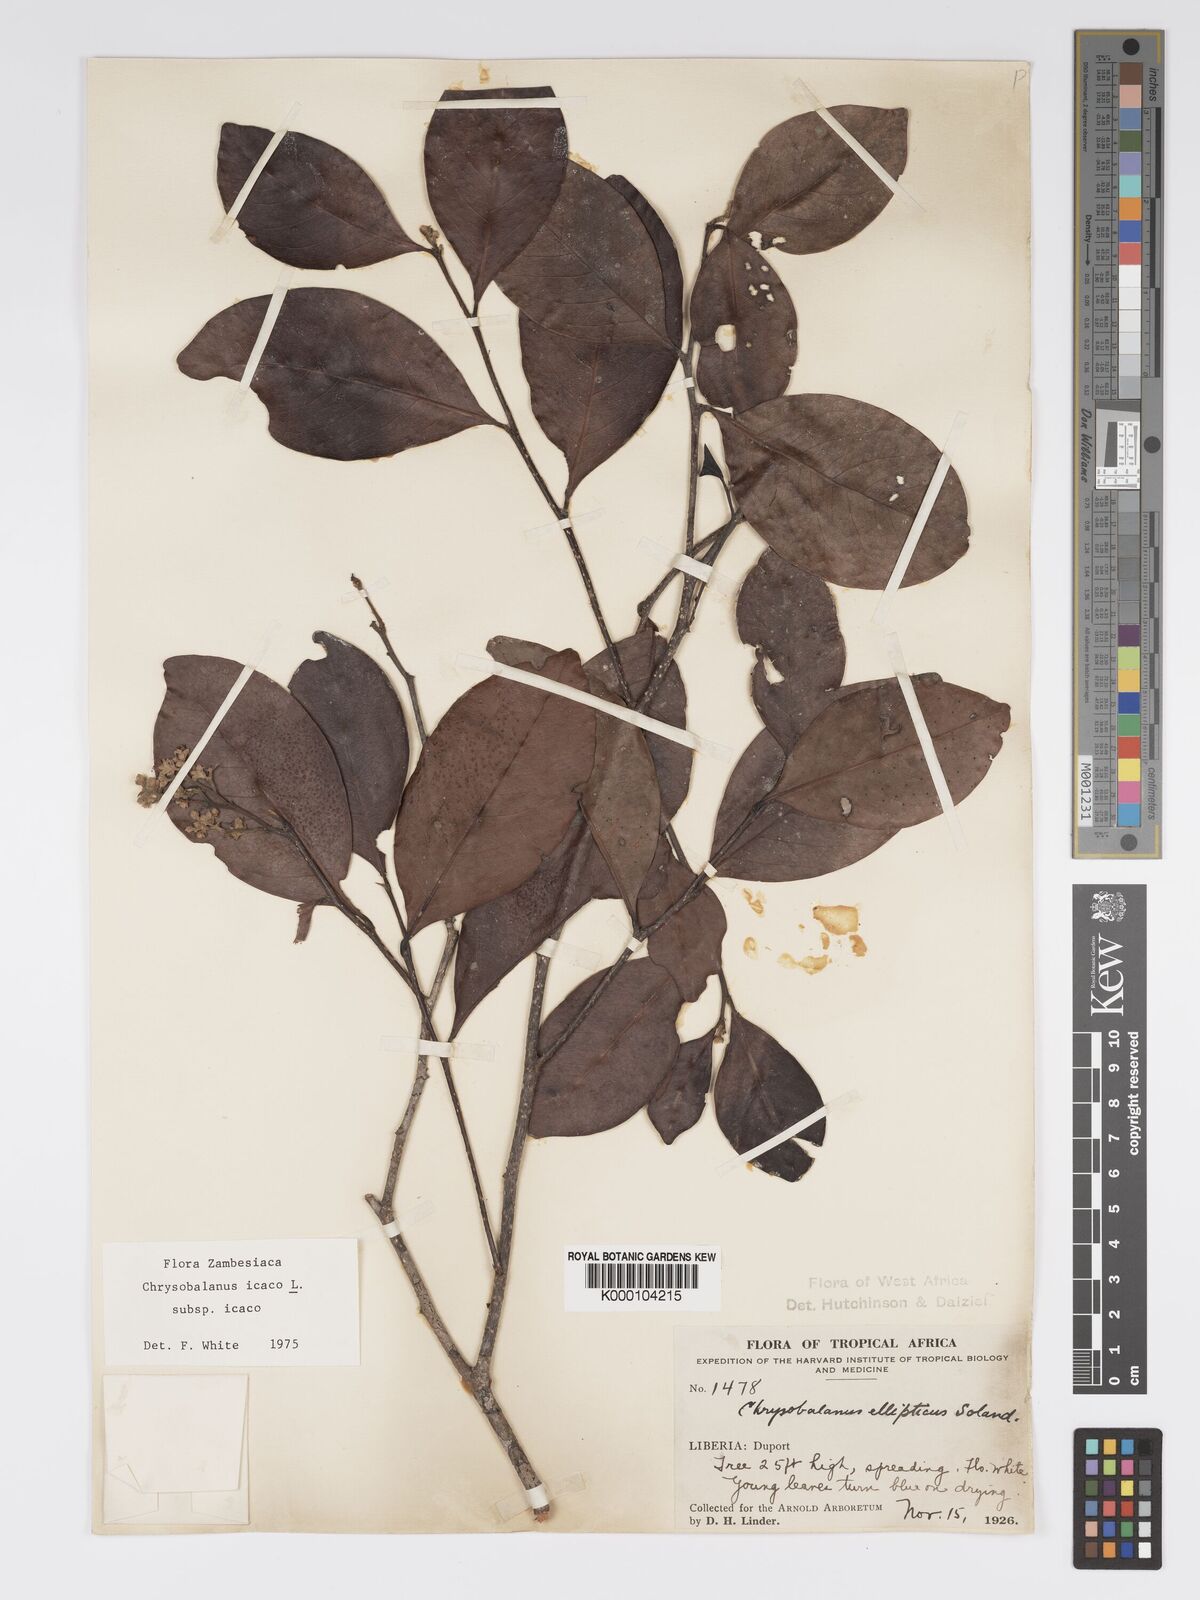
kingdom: Plantae
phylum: Tracheophyta
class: Magnoliopsida
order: Malpighiales
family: Chrysobalanaceae
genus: Chrysobalanus
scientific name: Chrysobalanus icaco
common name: Coco plum
